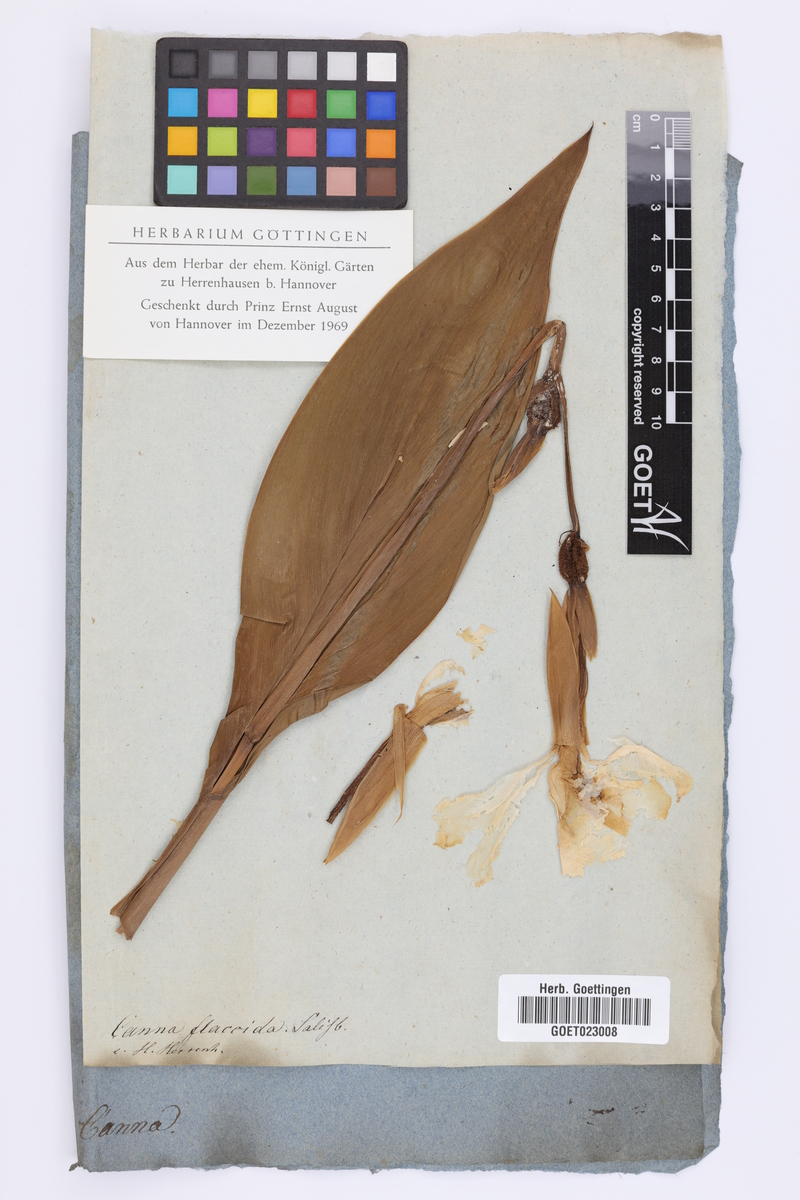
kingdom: Plantae
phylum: Tracheophyta
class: Liliopsida
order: Zingiberales
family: Cannaceae
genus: Canna
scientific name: Canna flaccida
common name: Bandana-of-the-everglades
